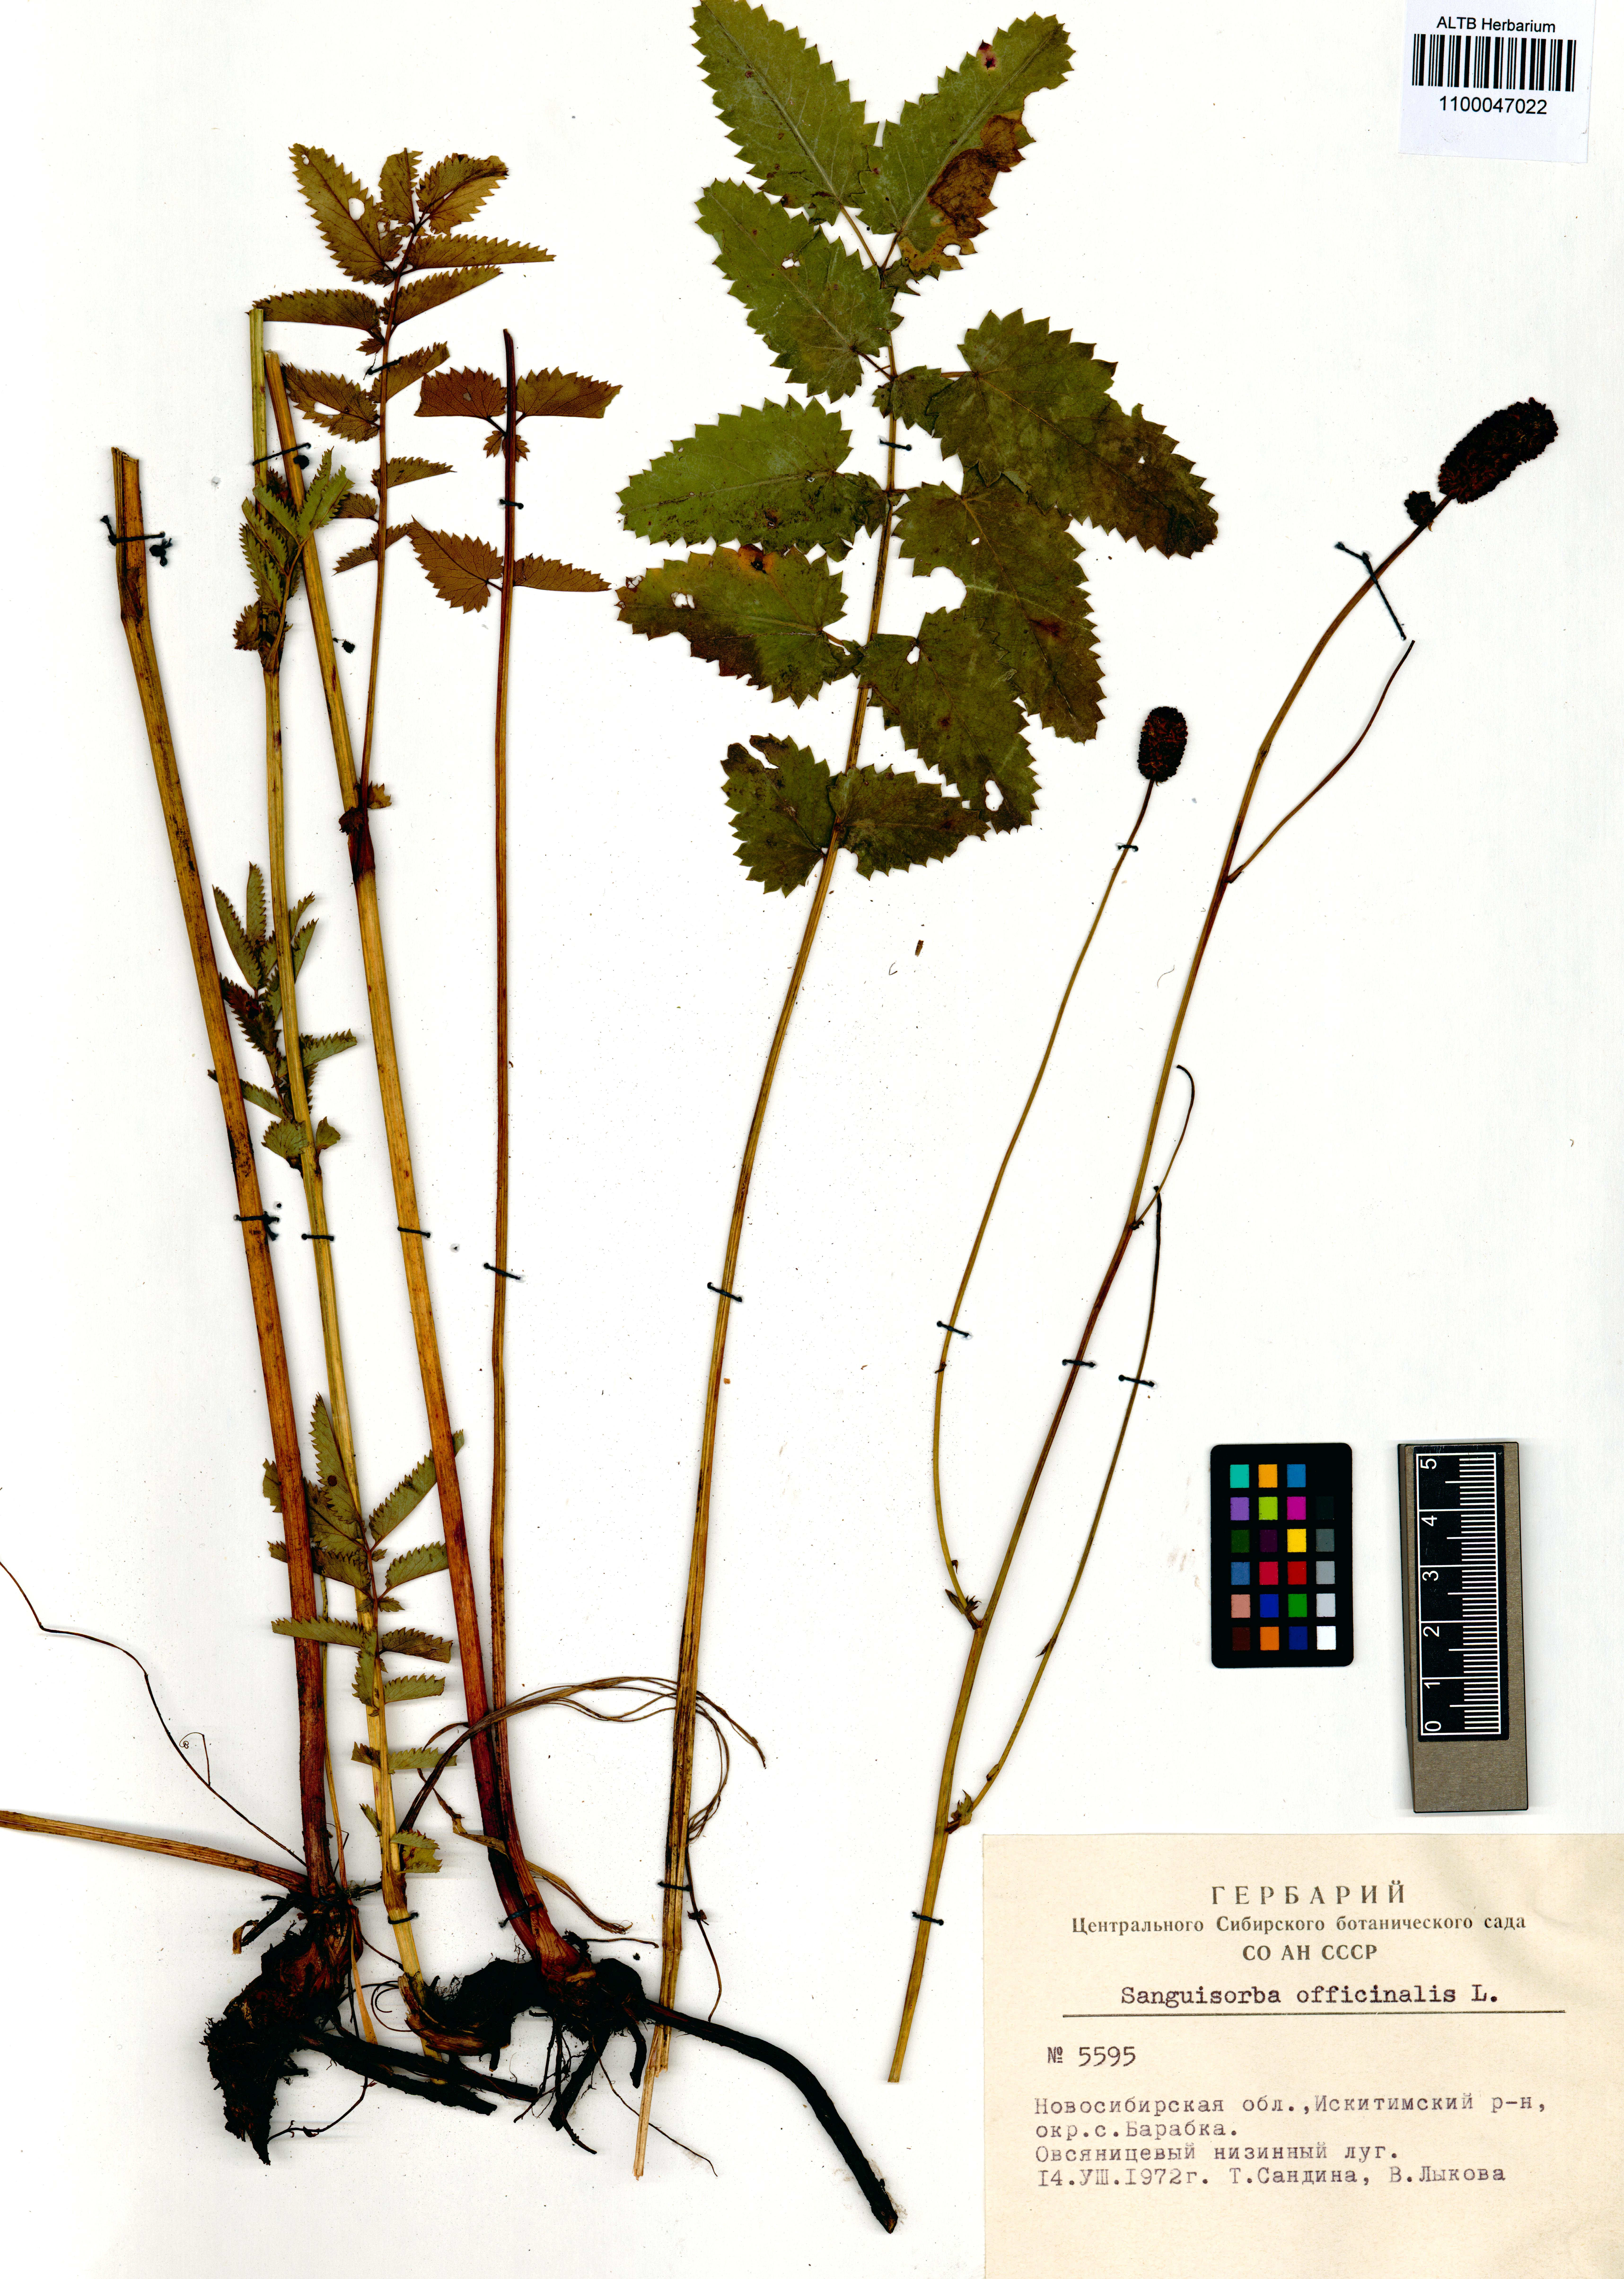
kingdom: Plantae
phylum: Tracheophyta
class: Magnoliopsida
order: Rosales
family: Rosaceae
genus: Sanguisorba
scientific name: Sanguisorba officinalis
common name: Great burnet
